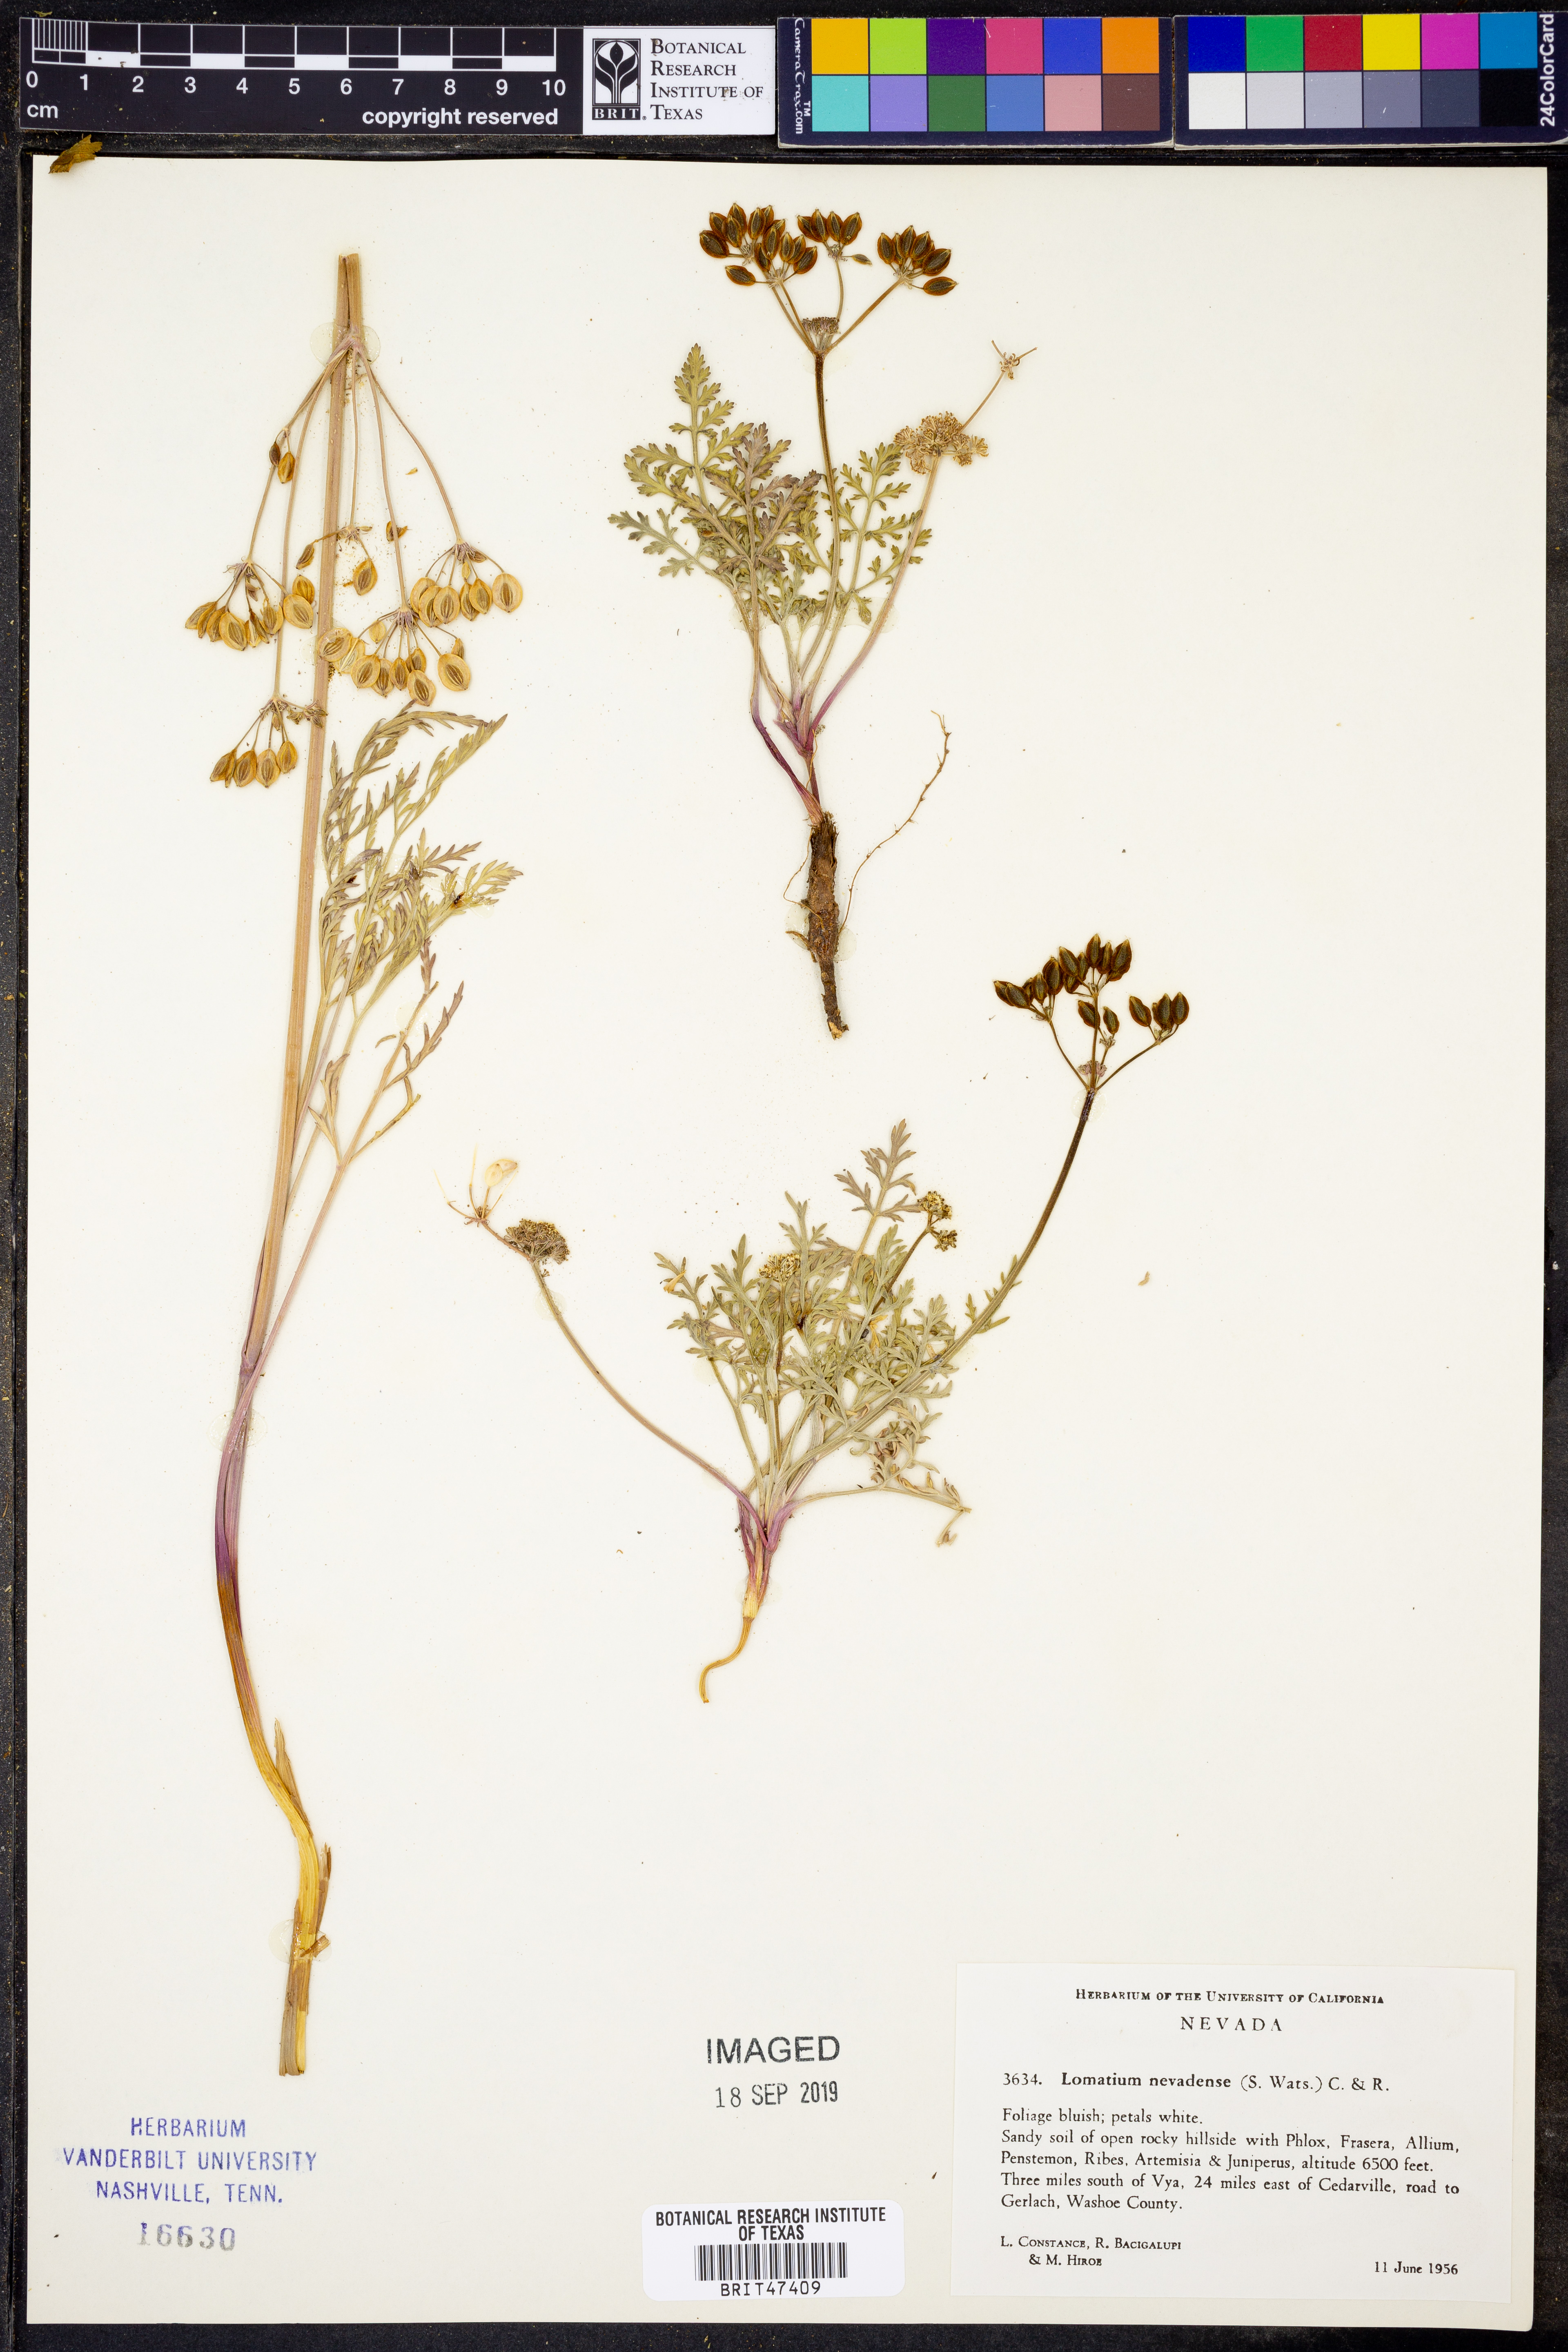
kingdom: Plantae
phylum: Tracheophyta
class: Magnoliopsida
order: Apiales
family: Apiaceae
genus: Lomatium
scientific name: Lomatium nevadense
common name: Nevada lomatium
